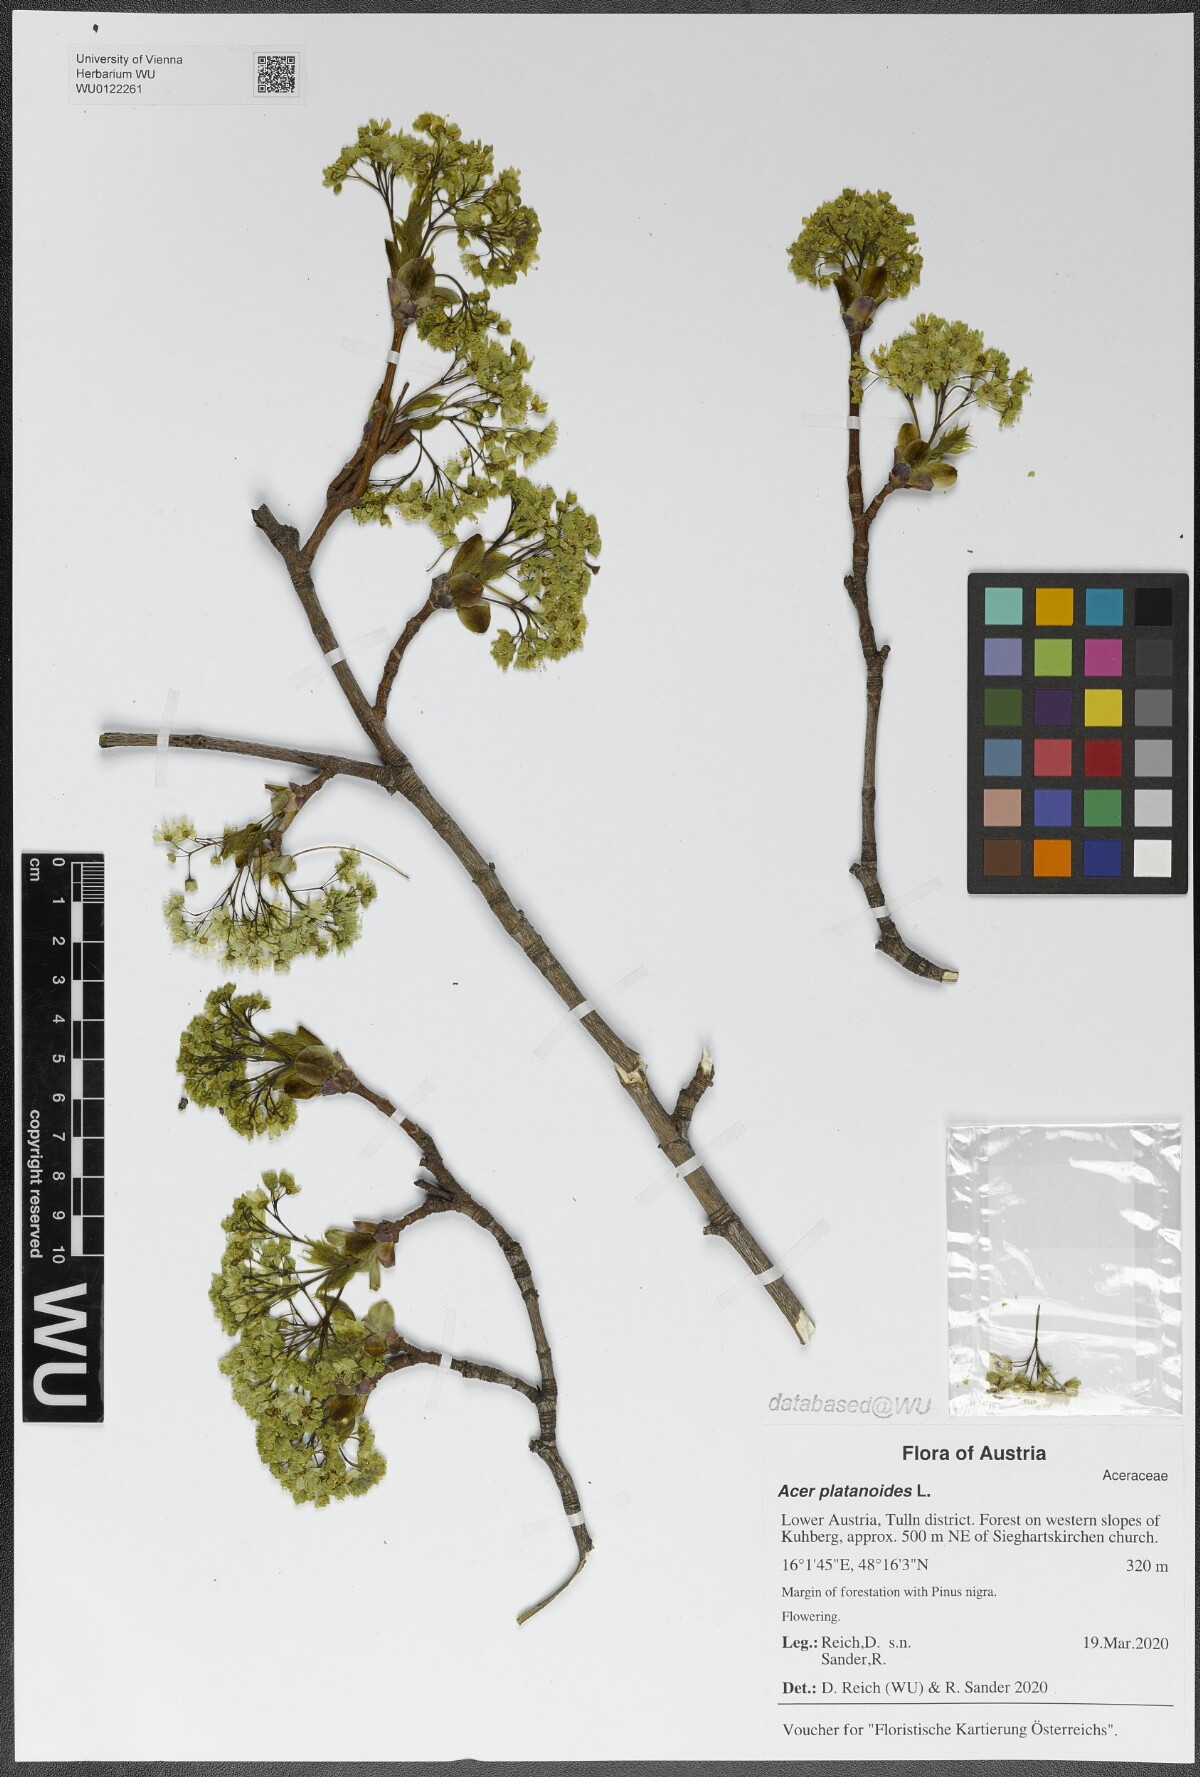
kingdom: Plantae
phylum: Tracheophyta
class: Magnoliopsida
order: Sapindales
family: Sapindaceae
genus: Acer
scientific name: Acer platanoides
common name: Norway maple
